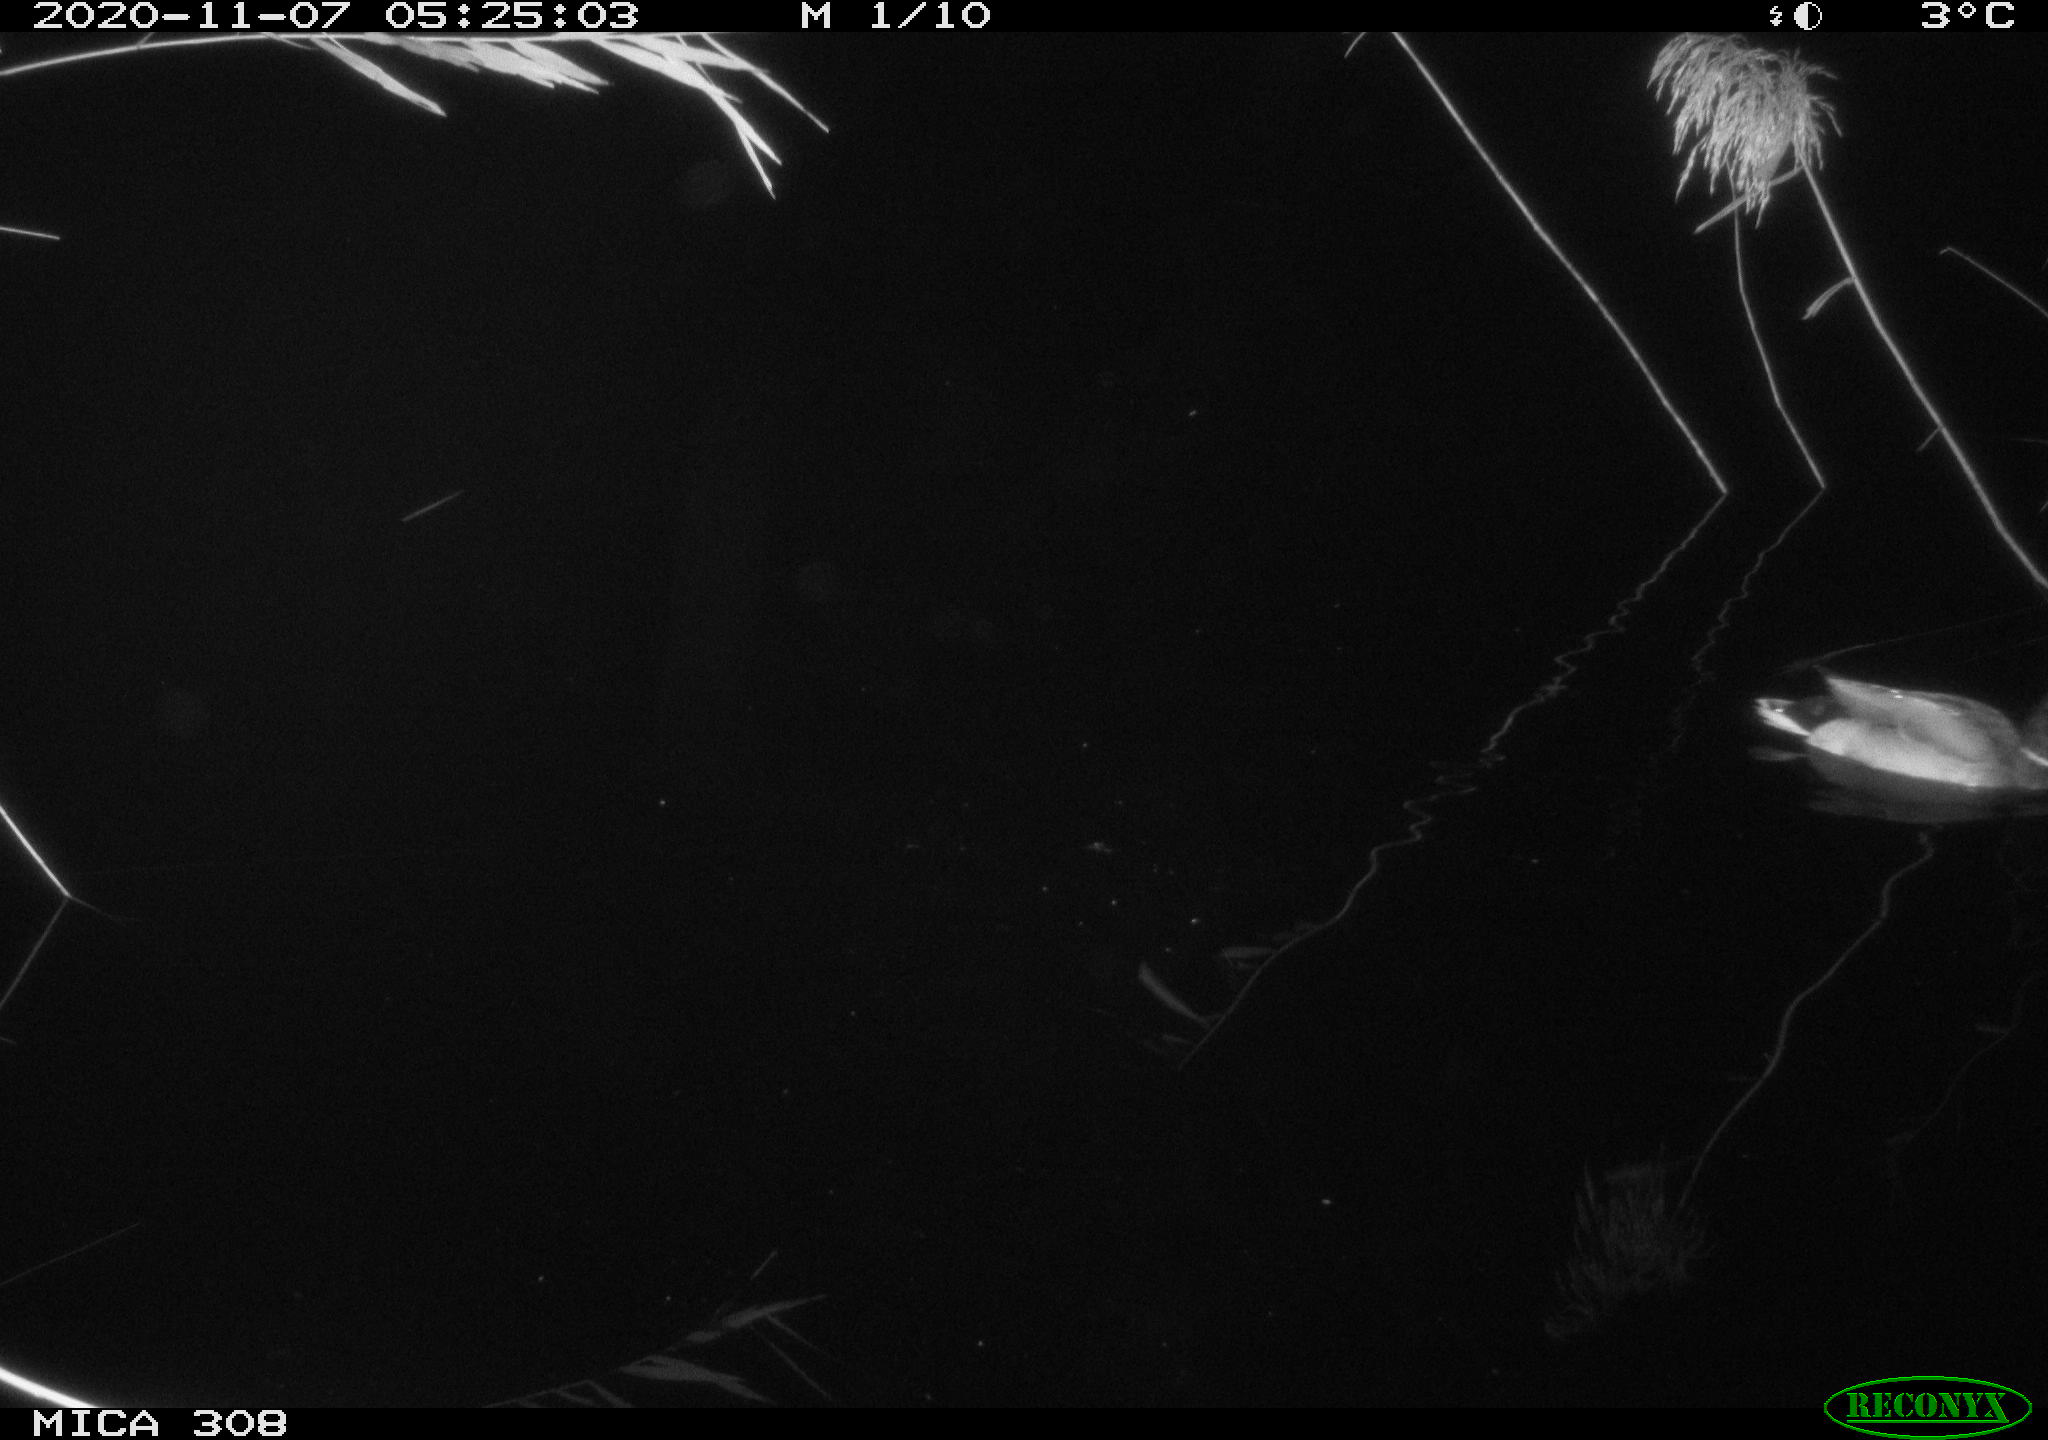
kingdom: Animalia
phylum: Chordata
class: Aves
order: Anseriformes
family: Anatidae
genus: Anas
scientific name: Anas platyrhynchos
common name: Mallard
